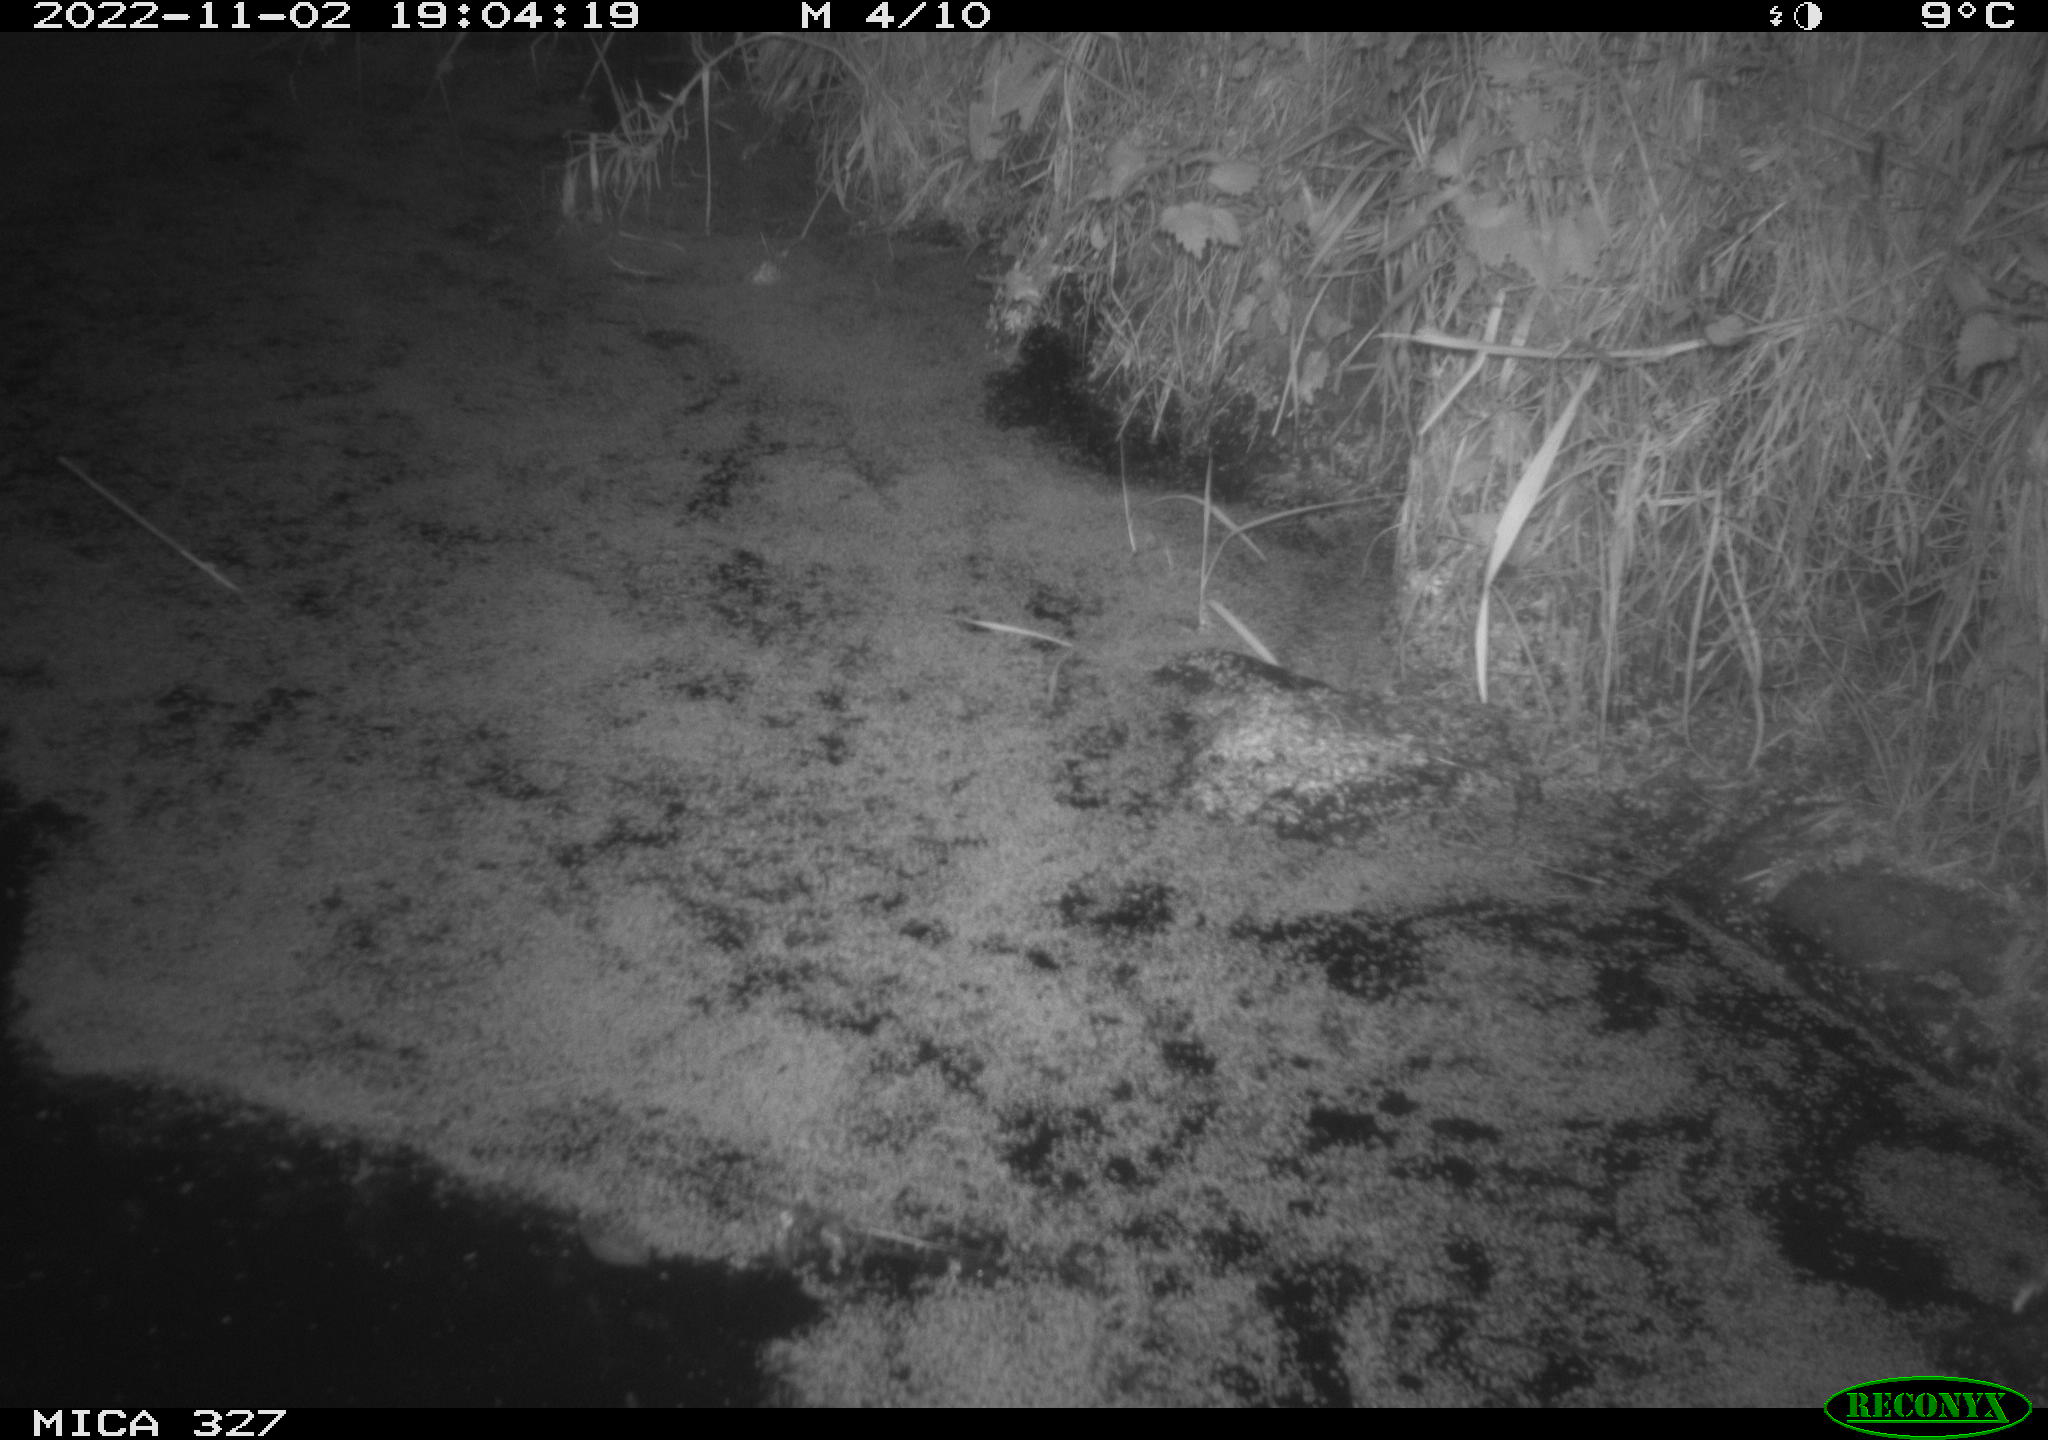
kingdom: Animalia
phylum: Chordata
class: Mammalia
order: Rodentia
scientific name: Rodentia
